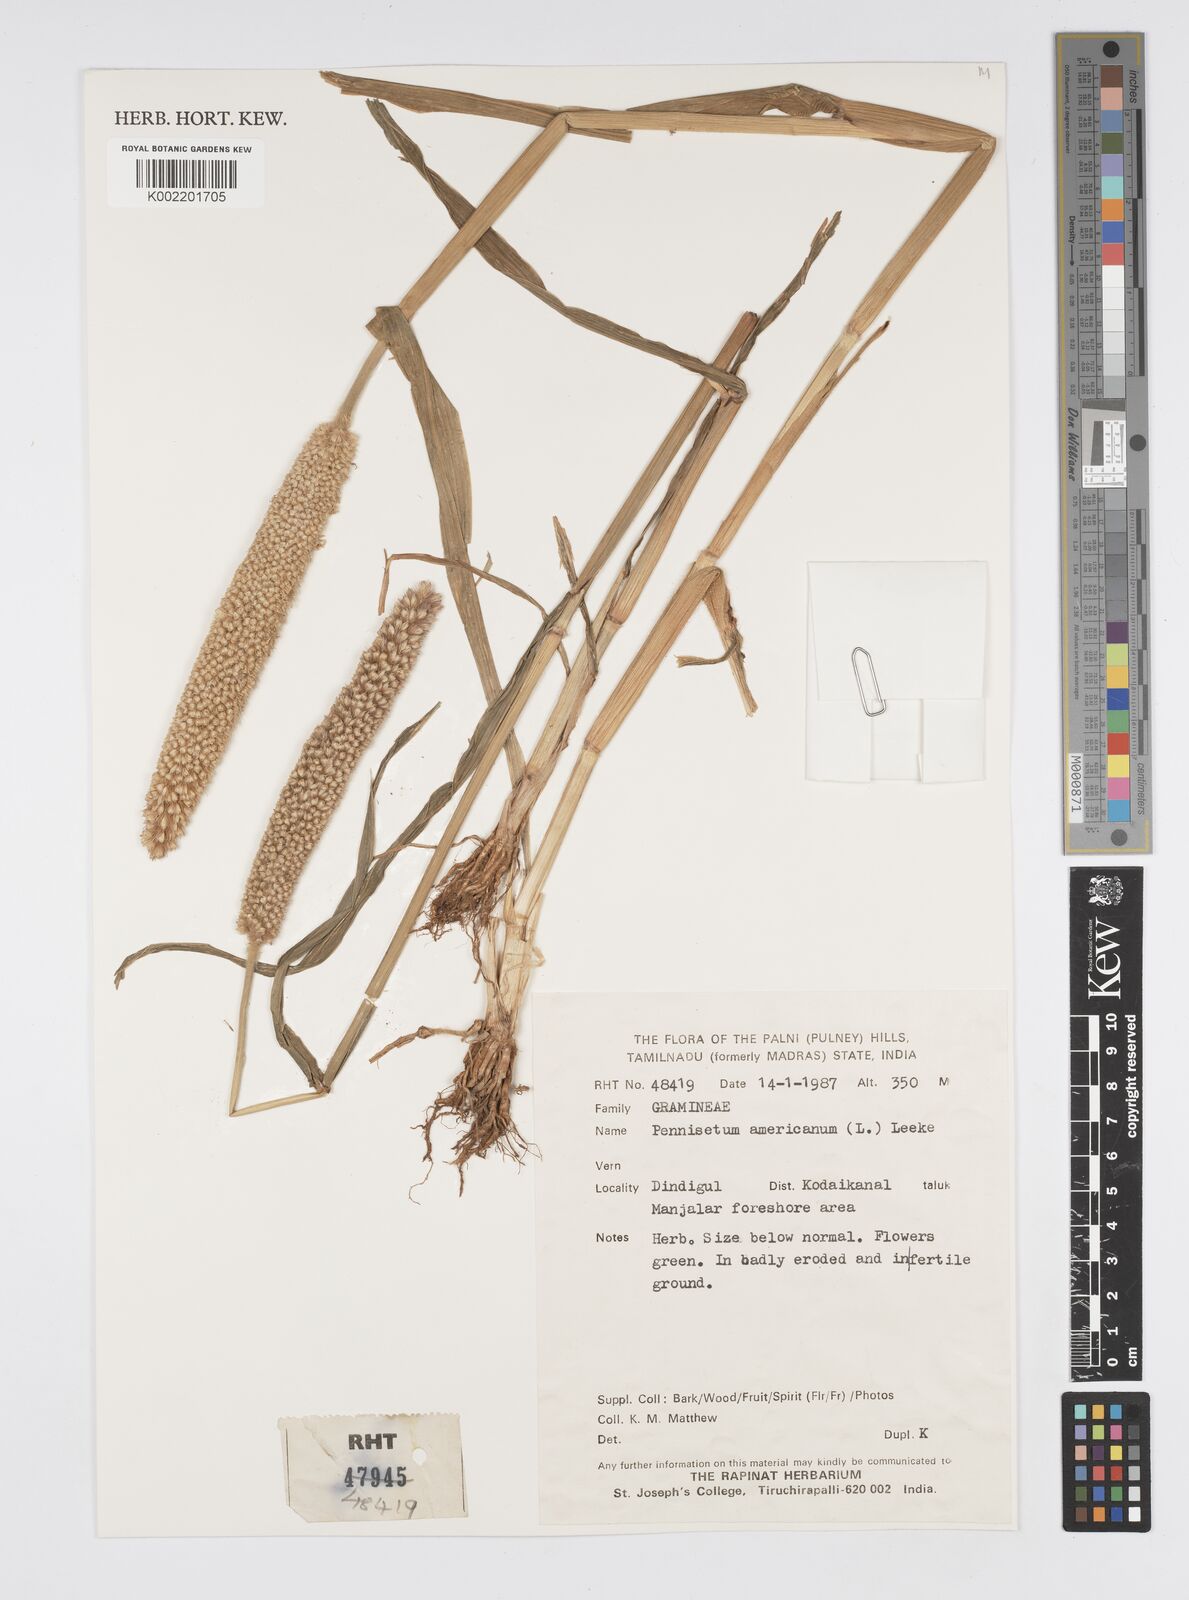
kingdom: Plantae
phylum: Tracheophyta
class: Liliopsida
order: Poales
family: Poaceae
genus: Cenchrus
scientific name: Cenchrus Pennisetum spec
